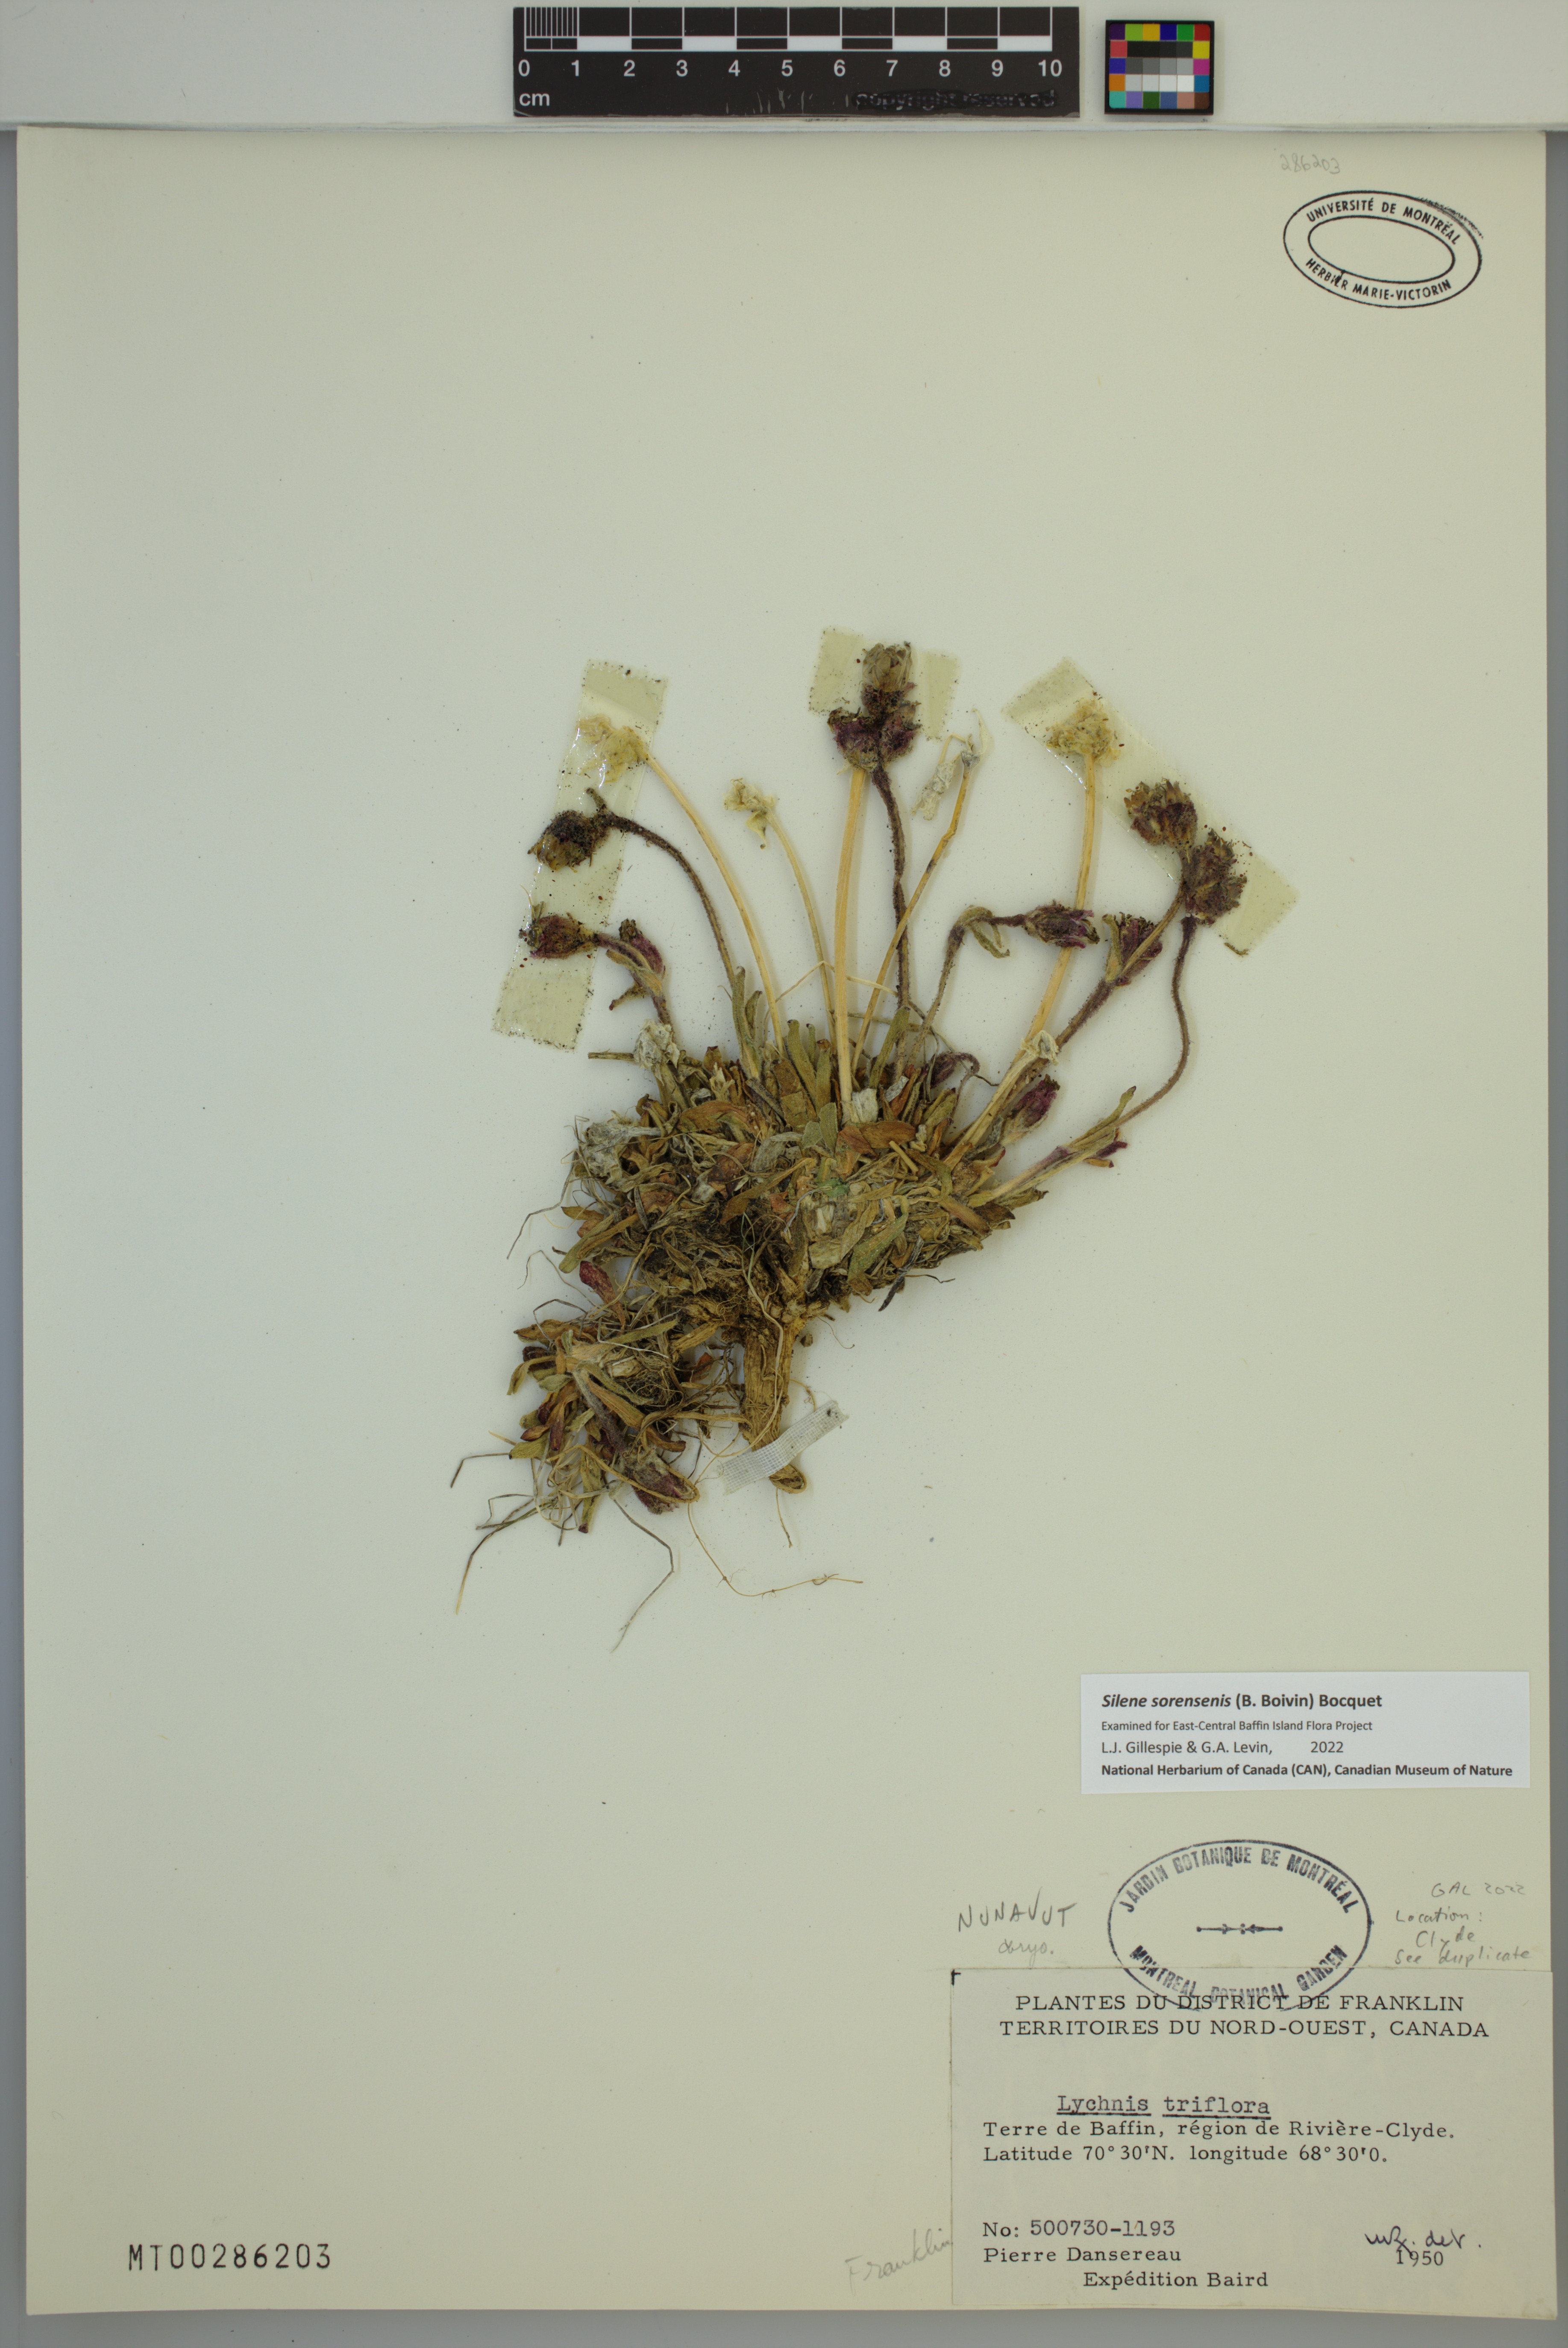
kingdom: Plantae
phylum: Tracheophyta
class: Magnoliopsida
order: Caryophyllales
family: Caryophyllaceae
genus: Silene
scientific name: Silene sorensenis
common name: Sorensen's campion
